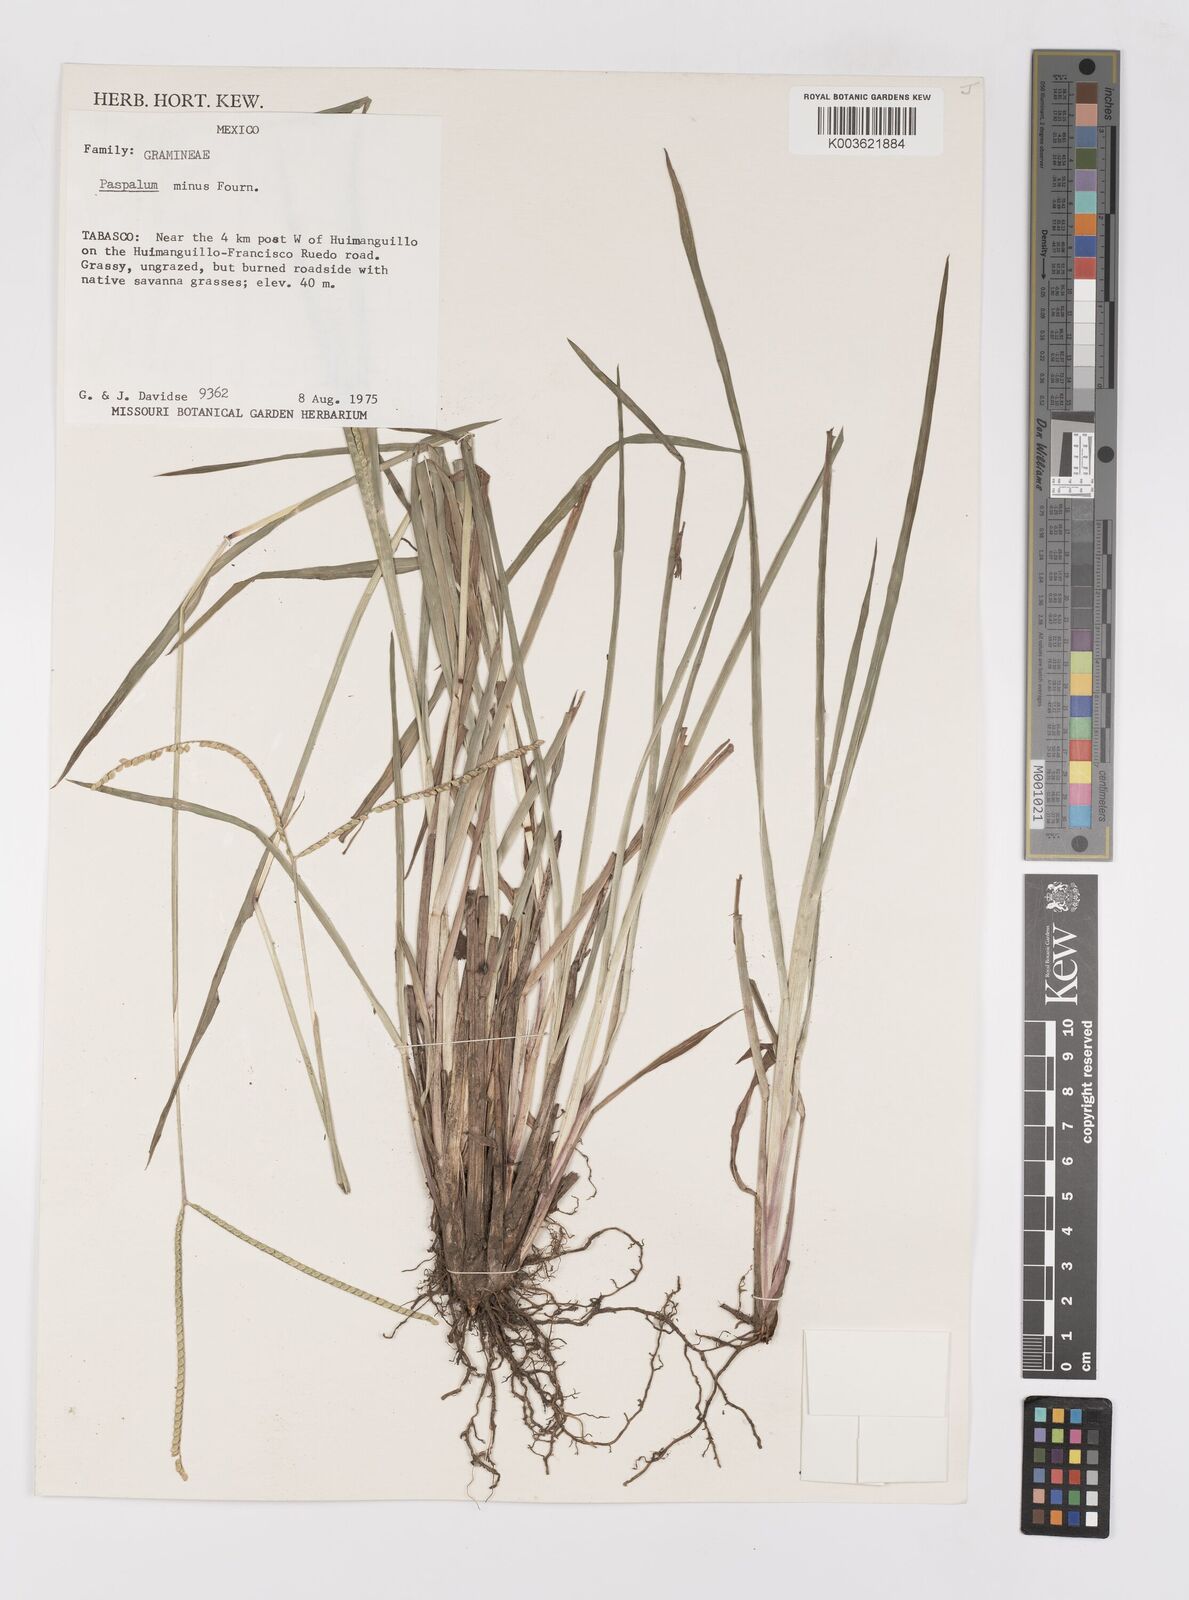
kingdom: Plantae
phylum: Tracheophyta
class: Liliopsida
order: Poales
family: Poaceae
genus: Paspalum
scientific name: Paspalum minus
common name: Matted paspalum
